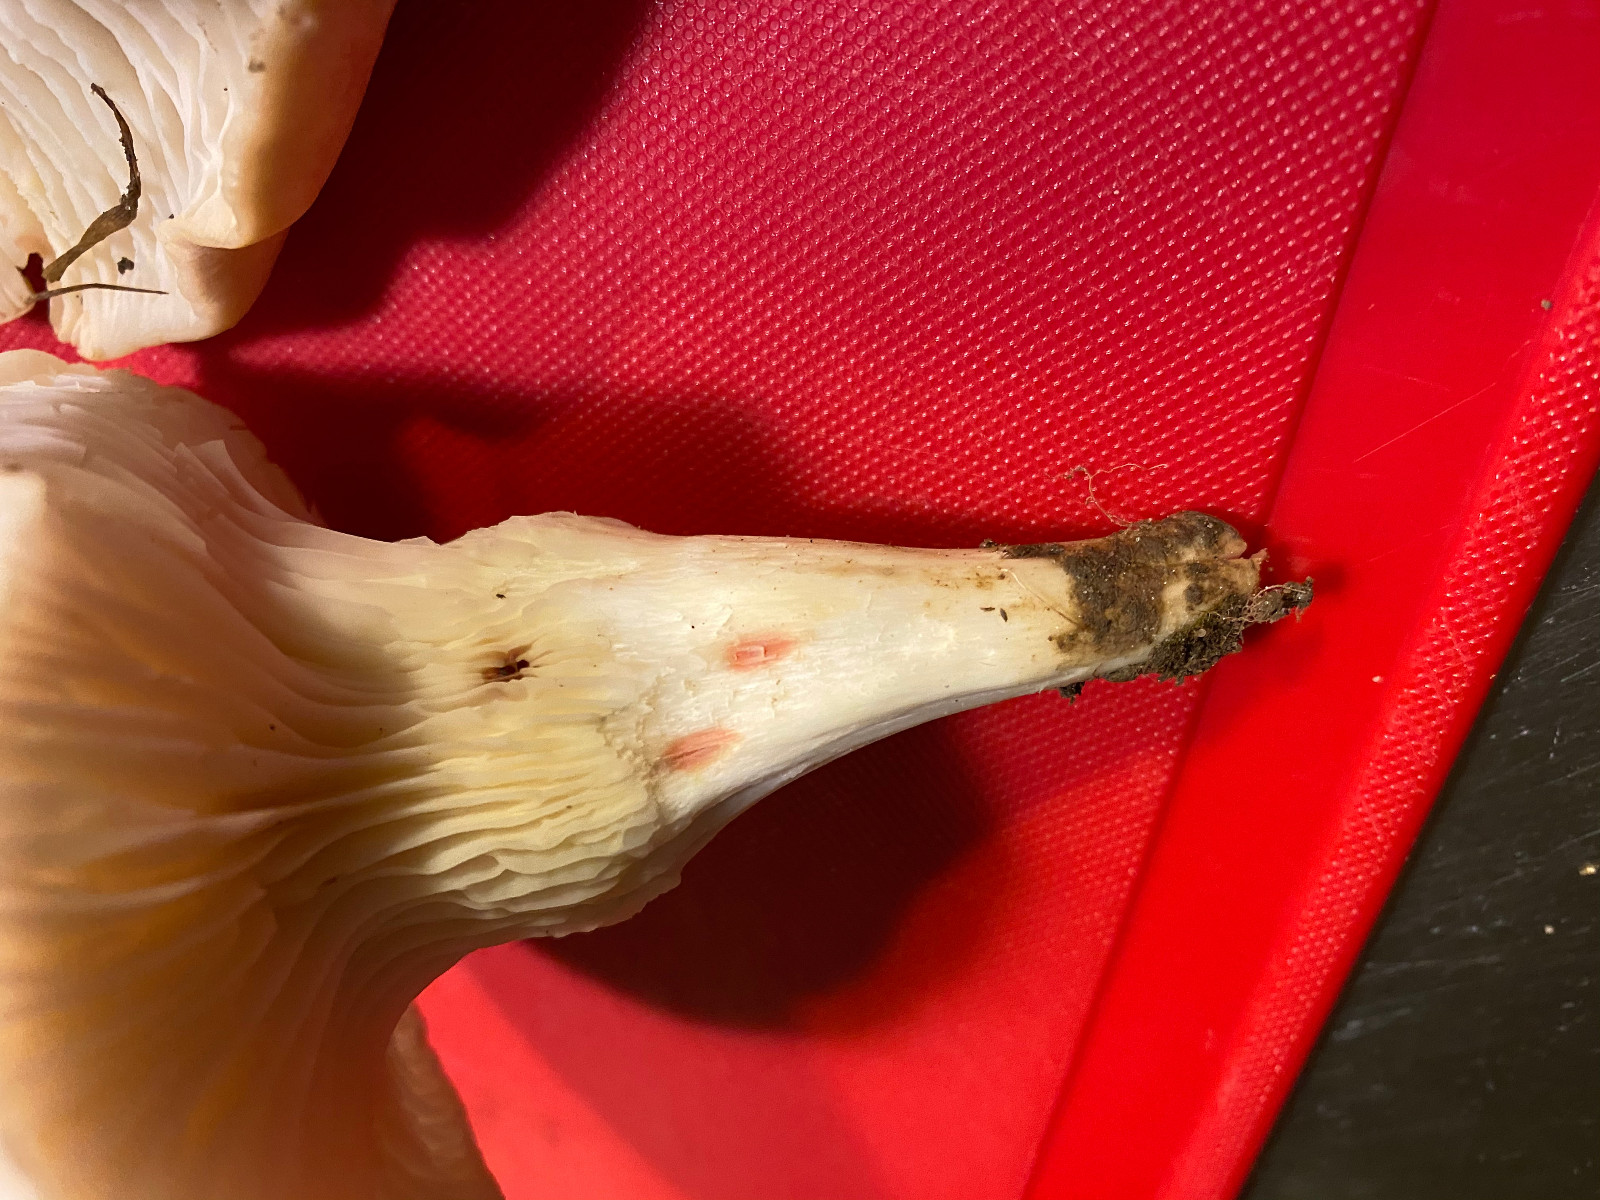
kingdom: Fungi
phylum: Basidiomycota
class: Agaricomycetes
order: Agaricales
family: Hygrophoraceae
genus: Cuphophyllus
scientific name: Cuphophyllus pratensis
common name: bleg vokshat
